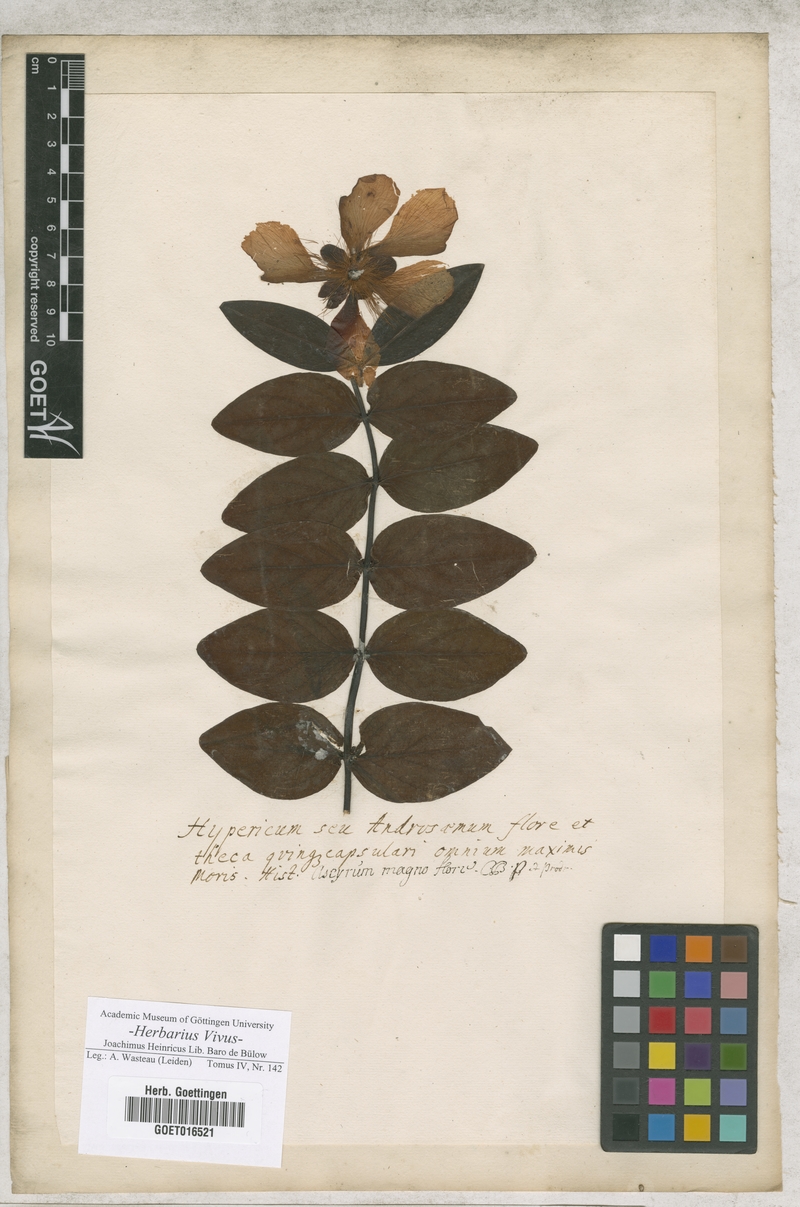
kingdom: Plantae
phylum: Tracheophyta
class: Magnoliopsida
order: Malpighiales
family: Hypericaceae
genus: Hypericum
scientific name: Hypericum olympicum
